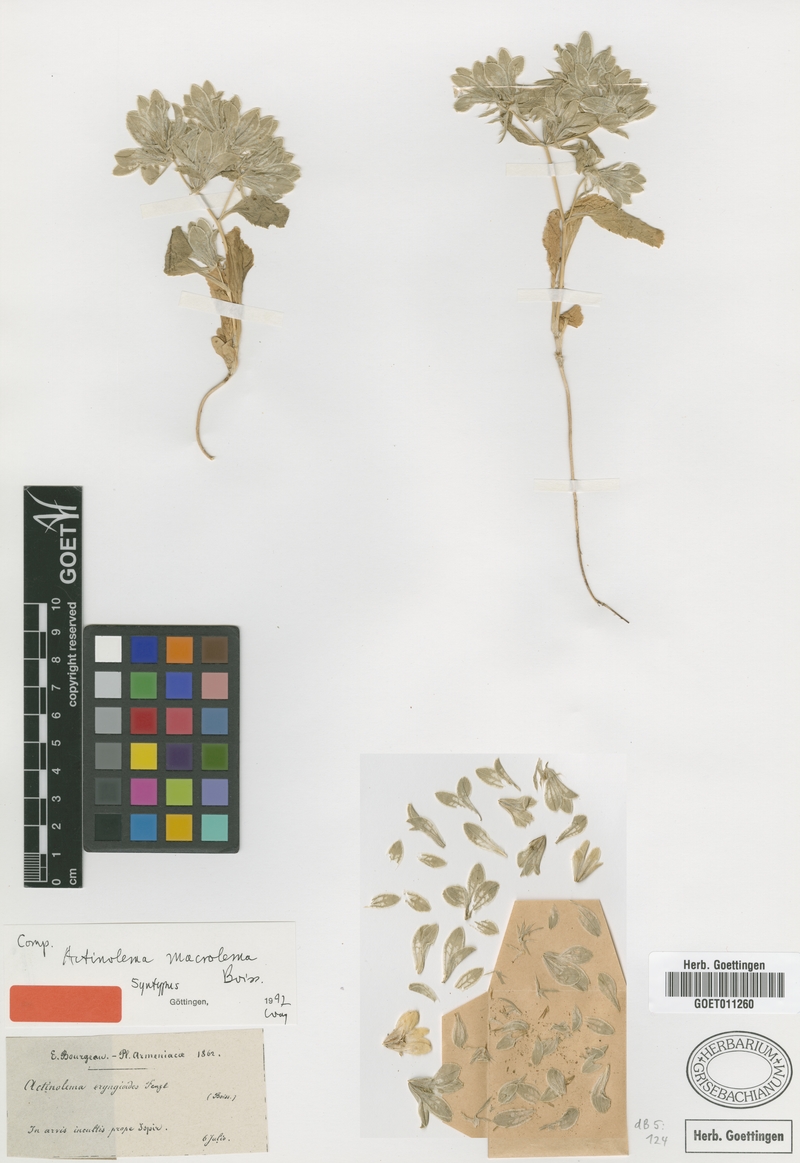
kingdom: Plantae
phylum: Tracheophyta
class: Magnoliopsida
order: Apiales
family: Apiaceae
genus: Actinolema
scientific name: Actinolema macrolema
